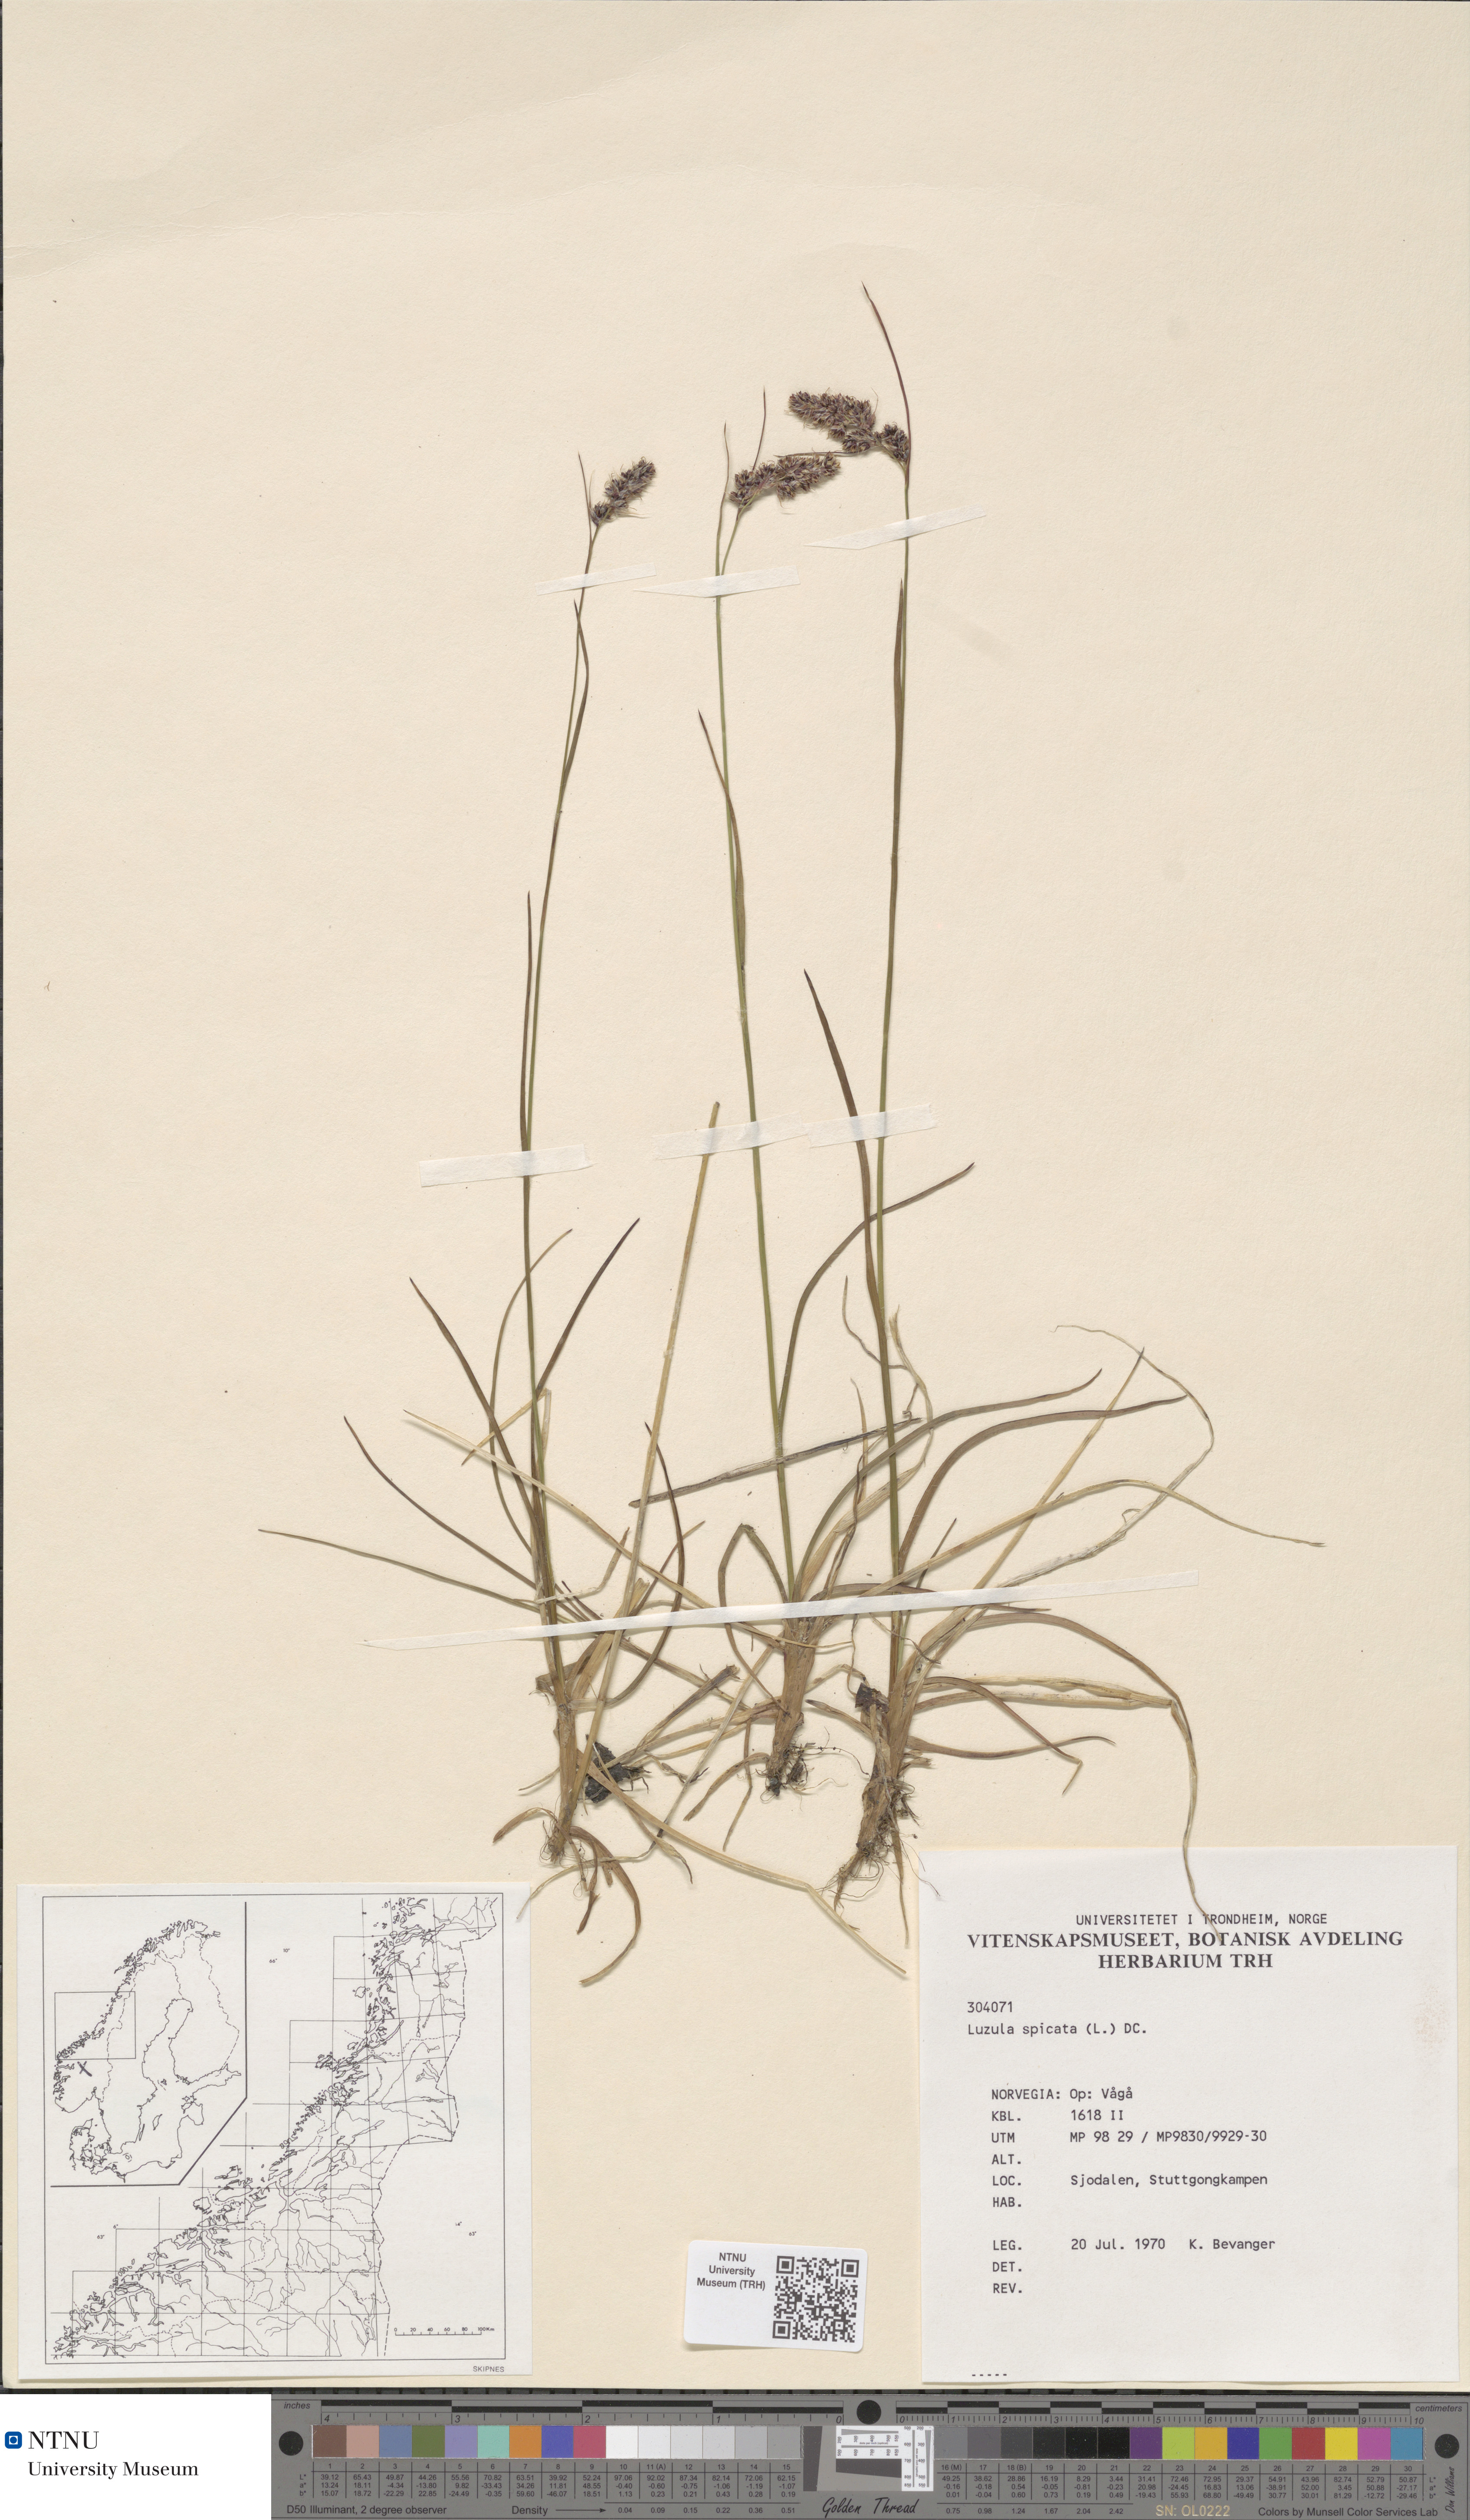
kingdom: Plantae
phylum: Tracheophyta
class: Liliopsida
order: Poales
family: Juncaceae
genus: Luzula
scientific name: Luzula spicata
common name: Spiked wood-rush
